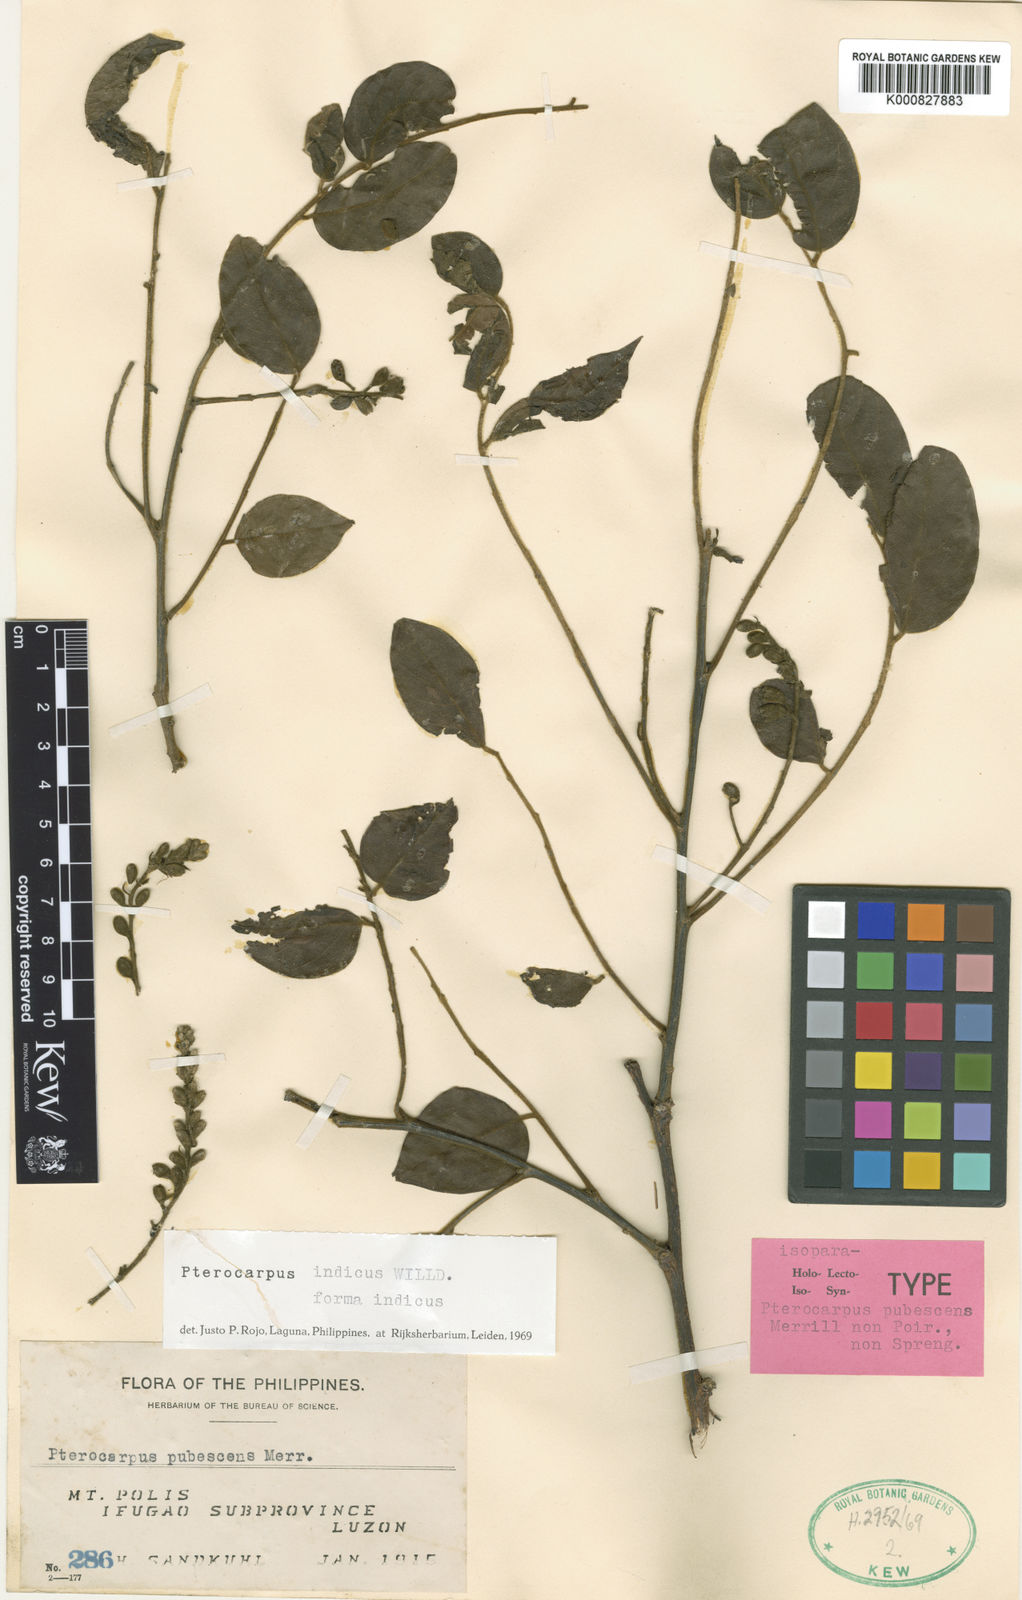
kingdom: Plantae
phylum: Tracheophyta
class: Magnoliopsida
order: Fabales
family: Fabaceae
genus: Pterocarpus
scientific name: Pterocarpus indicus
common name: Burmese rosewood
